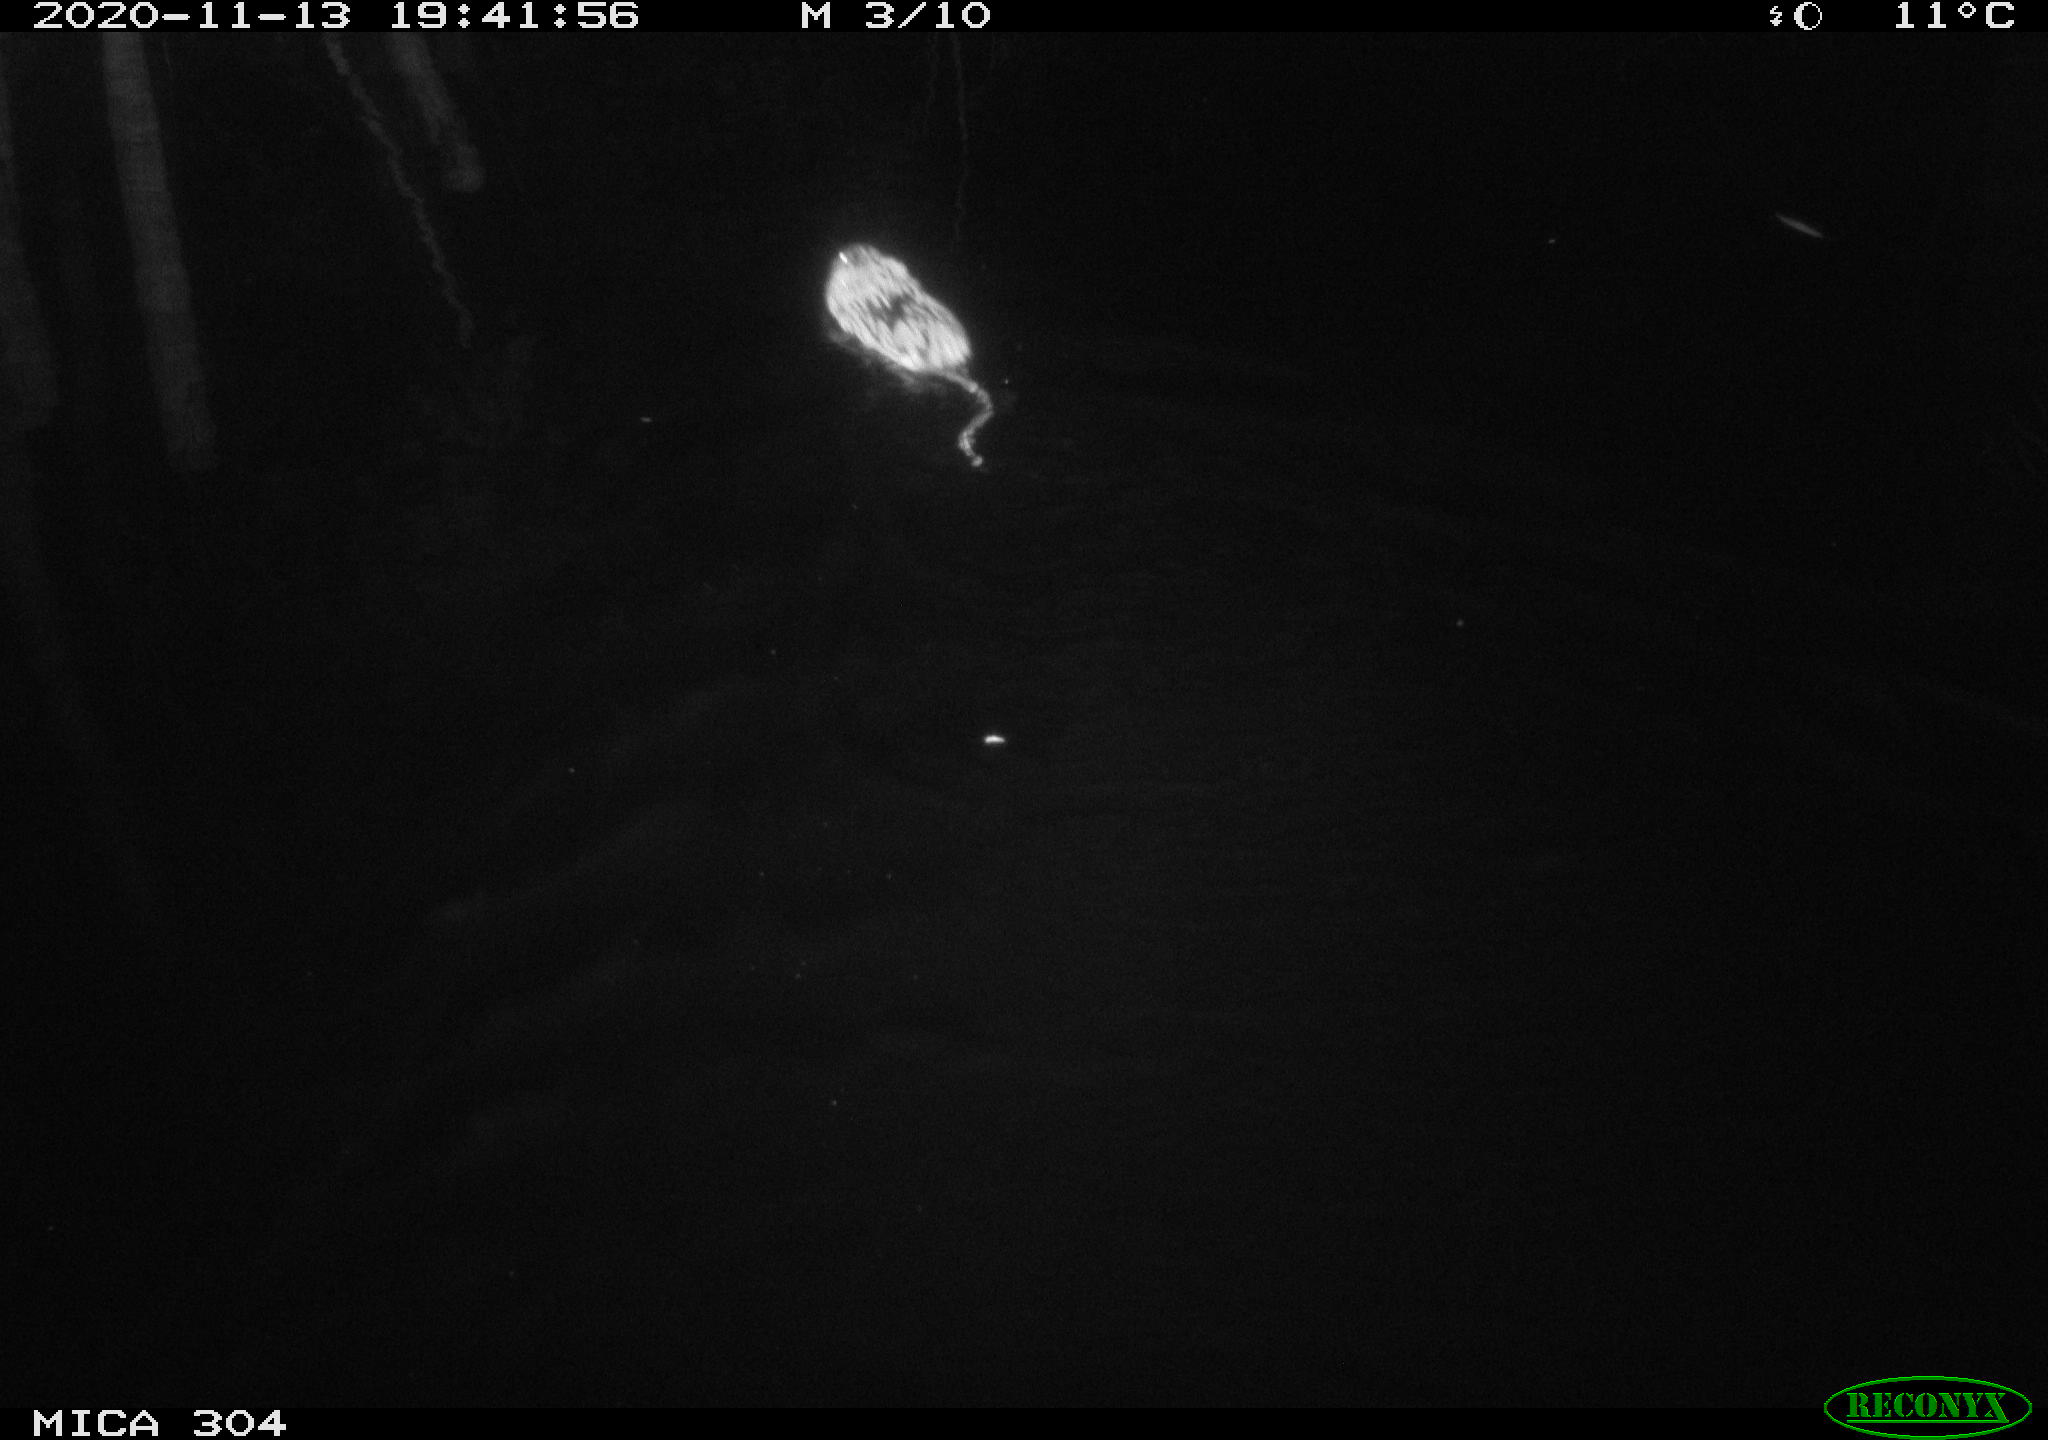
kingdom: Animalia
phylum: Chordata
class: Mammalia
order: Rodentia
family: Cricetidae
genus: Ondatra
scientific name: Ondatra zibethicus
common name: Muskrat
